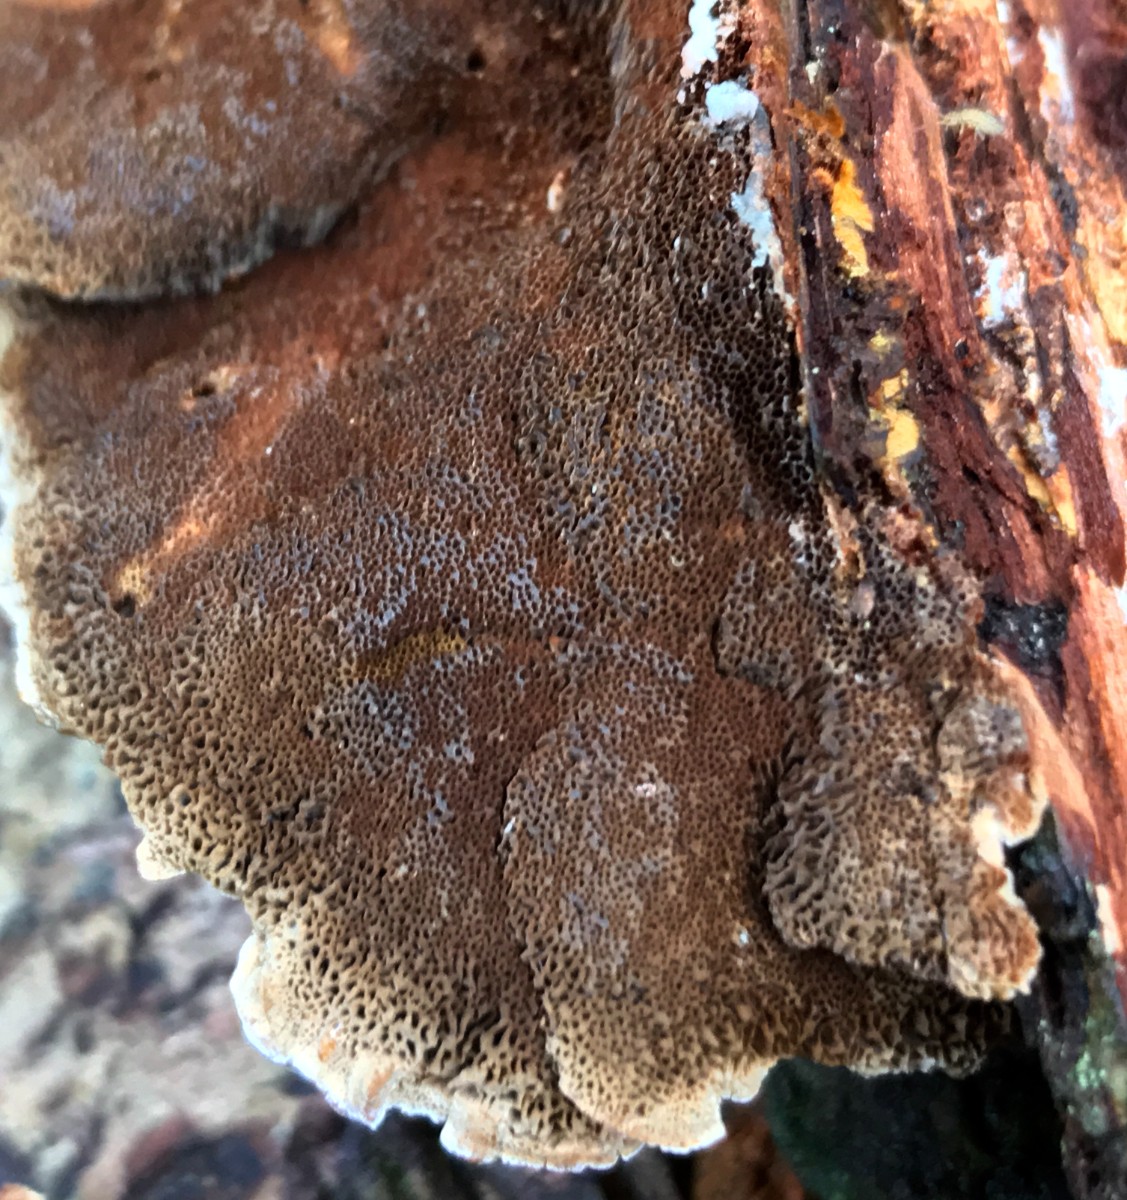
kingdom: Fungi
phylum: Basidiomycota
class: Agaricomycetes
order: Hymenochaetales
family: Hymenochaetaceae
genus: Xanthoporia
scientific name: Xanthoporia radiata
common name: elle-spejlporesvamp
